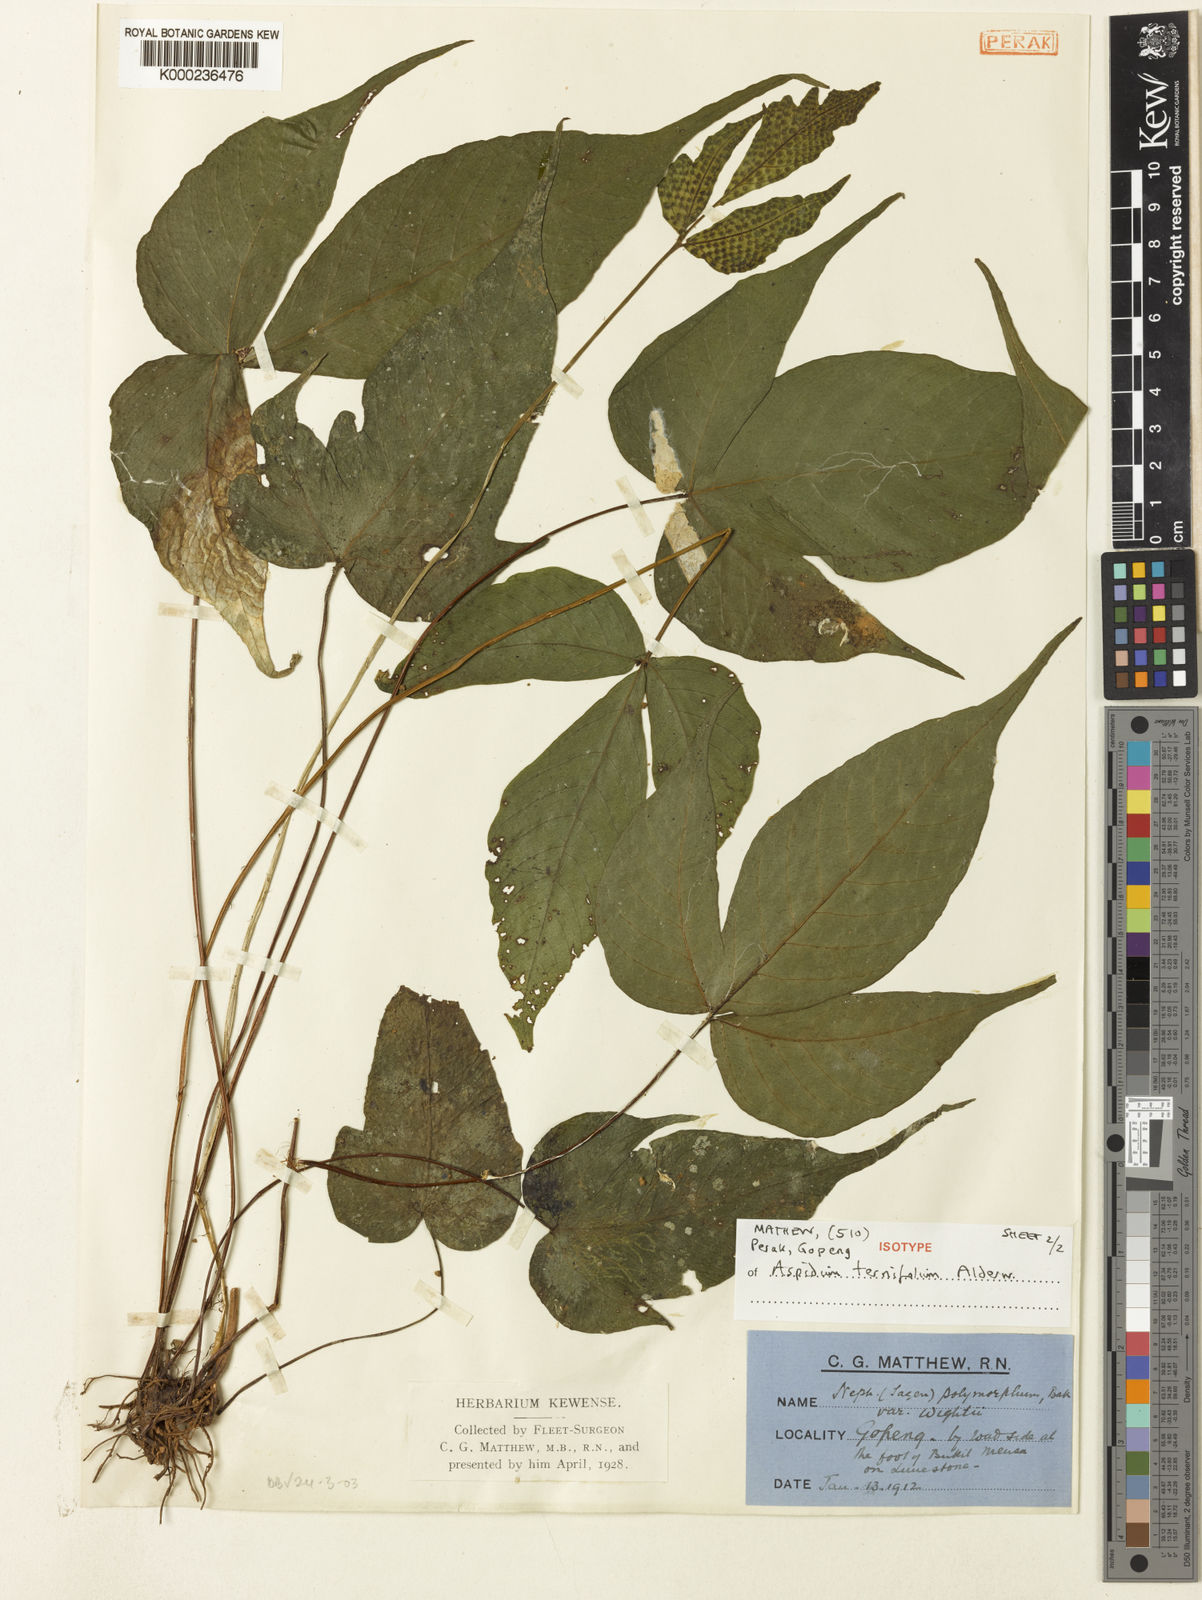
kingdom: Plantae
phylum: Tracheophyta
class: Polypodiopsida
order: Polypodiales
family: Tectariaceae
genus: Tectaria
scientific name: Tectaria siifolia
